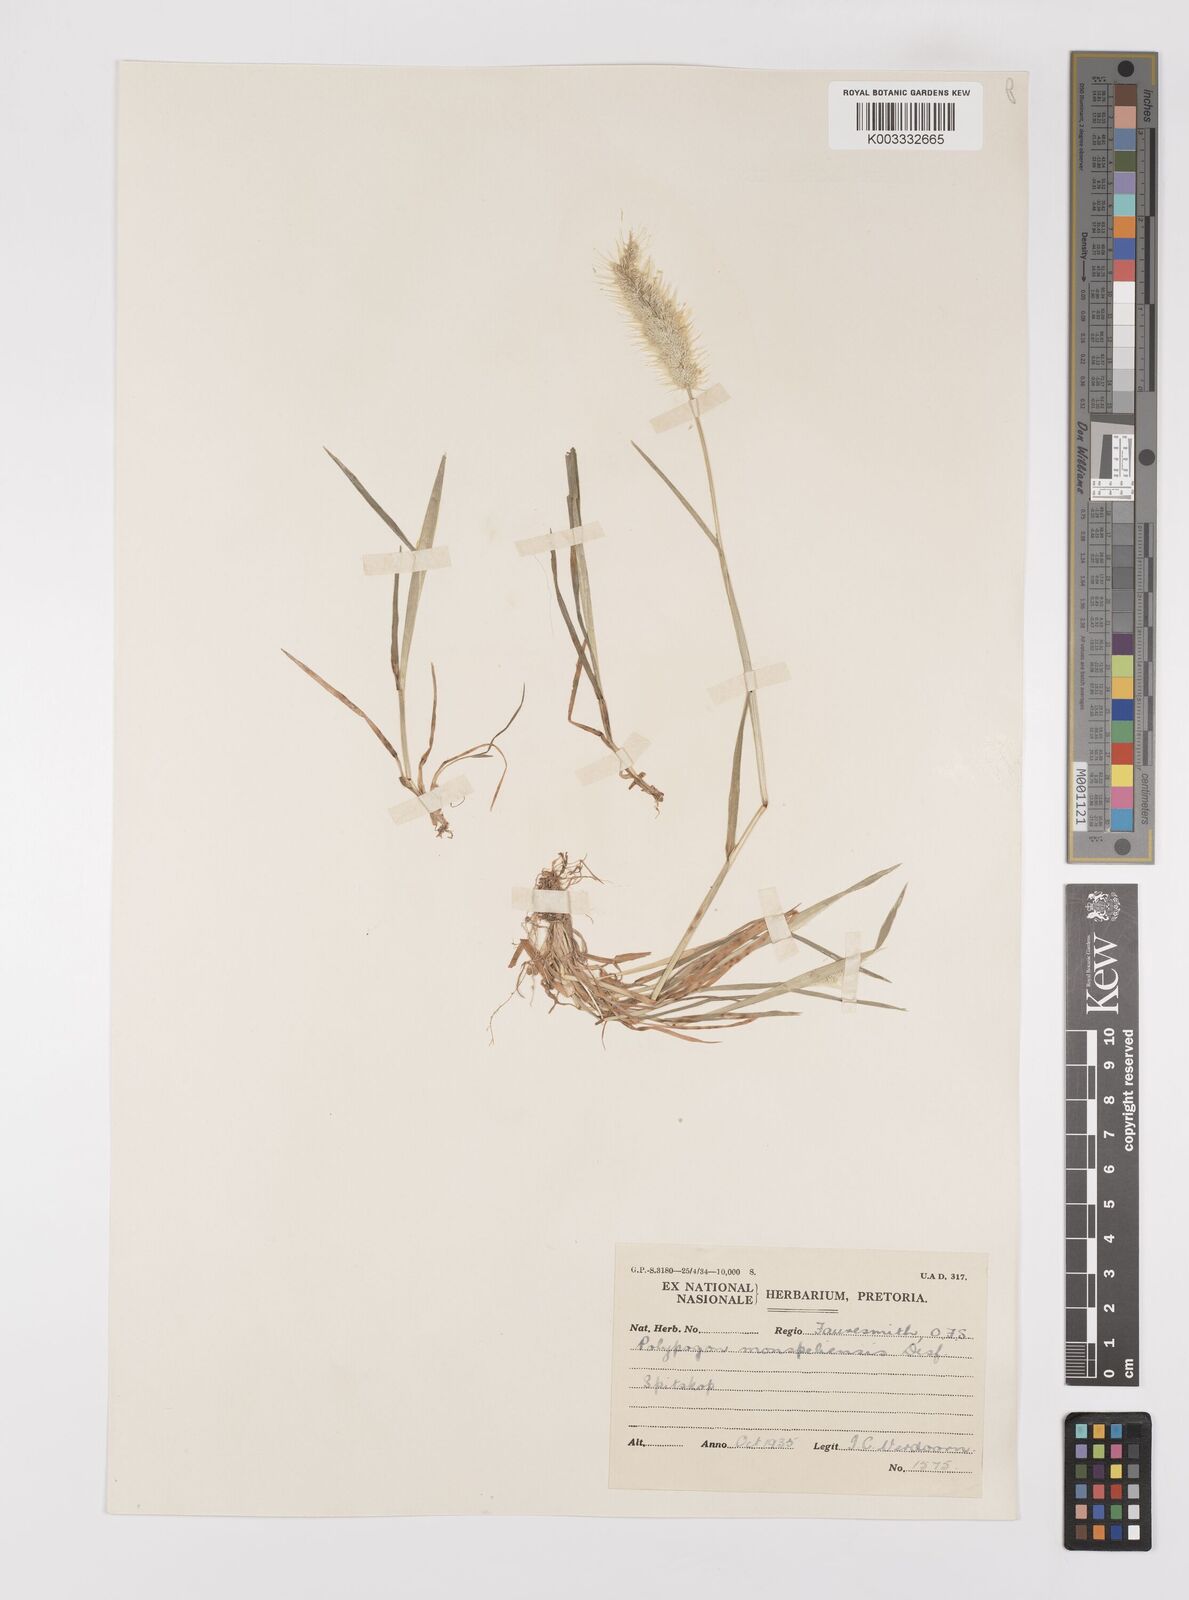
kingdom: Plantae
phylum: Tracheophyta
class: Liliopsida
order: Poales
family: Poaceae
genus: Polypogon
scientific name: Polypogon monspeliensis
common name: Annual rabbitsfoot grass
